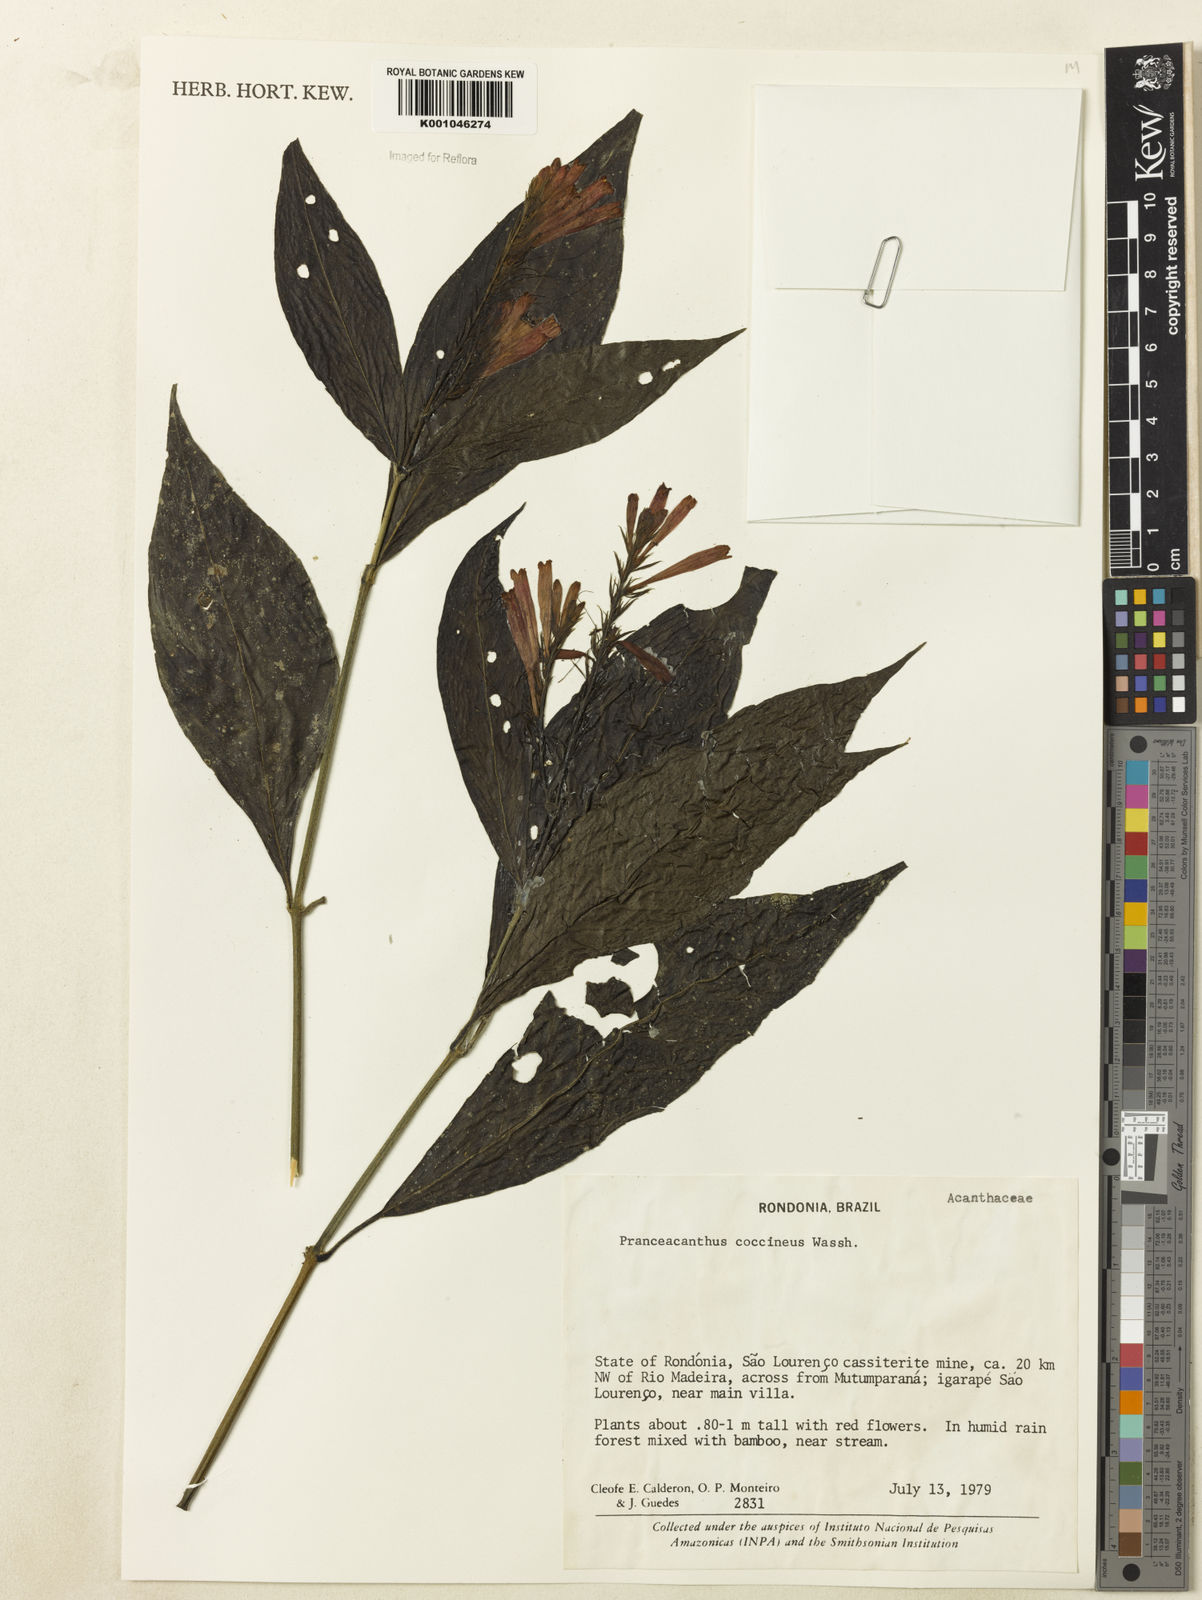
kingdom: Plantae
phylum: Tracheophyta
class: Magnoliopsida
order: Lamiales
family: Acanthaceae
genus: Pranceacanthus
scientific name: Pranceacanthus coccineus
